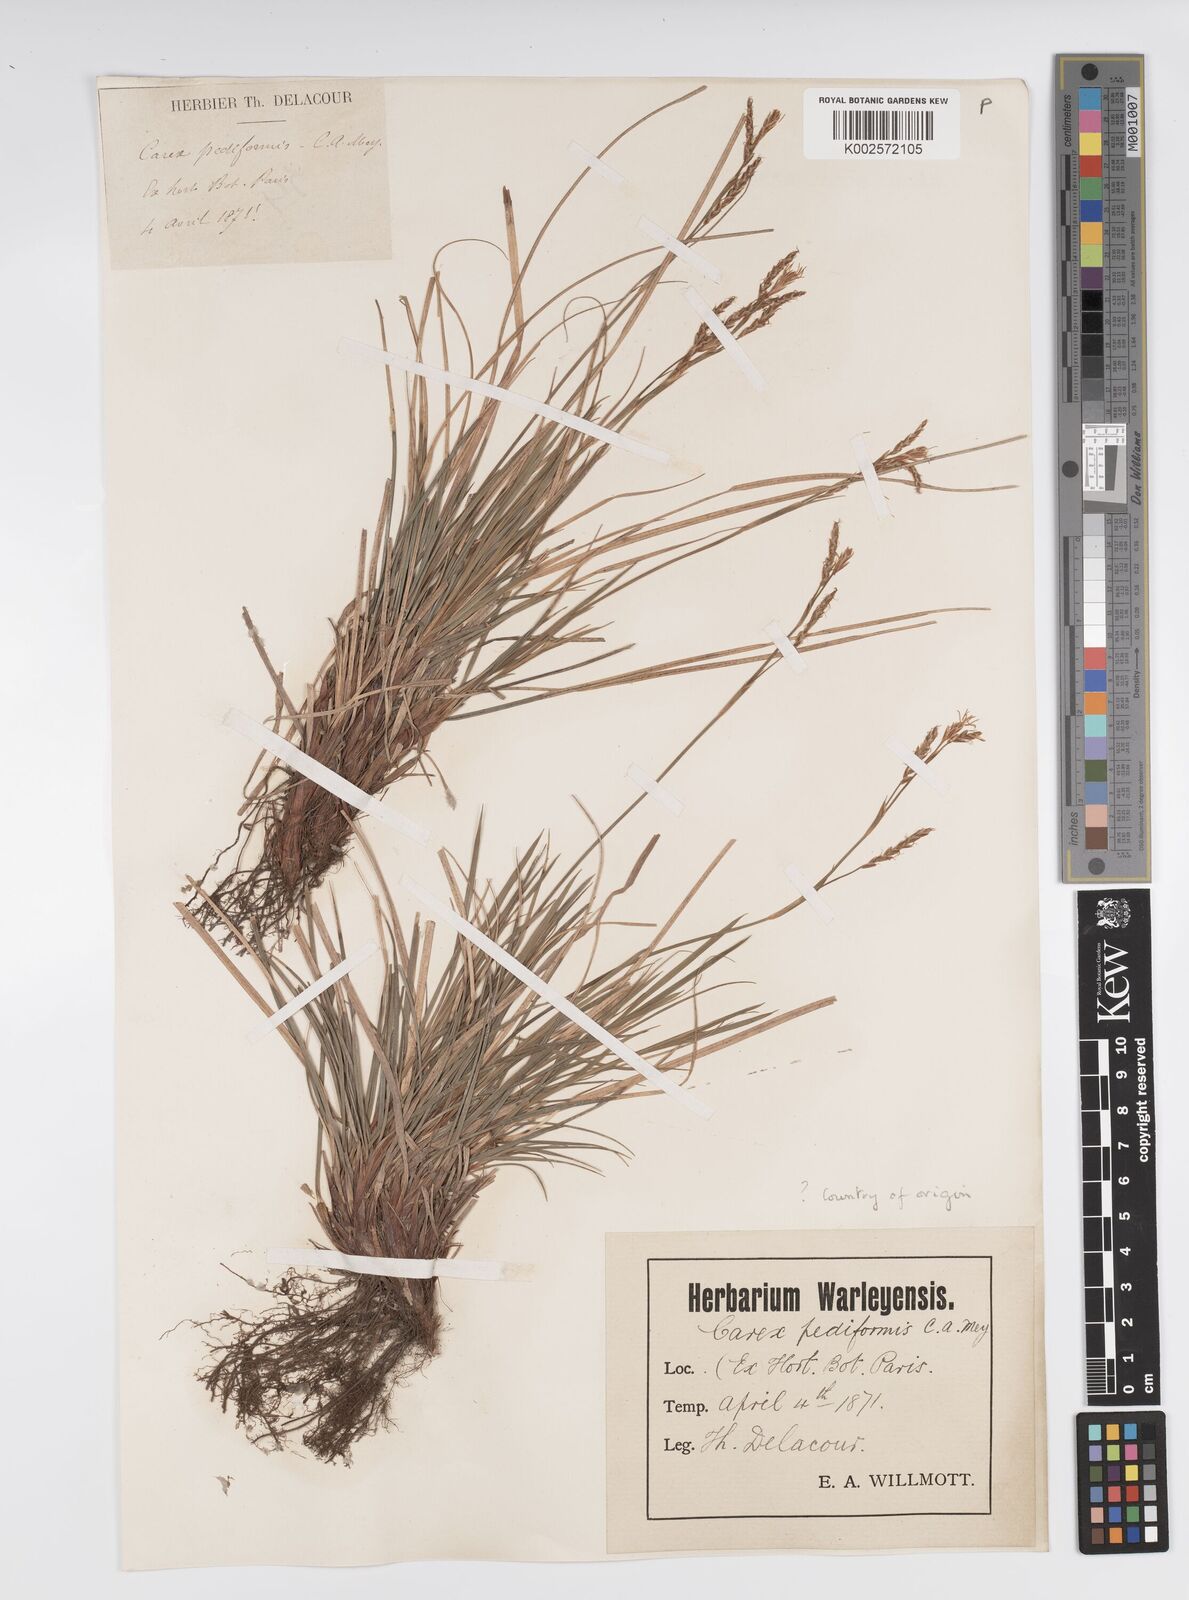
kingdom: Plantae
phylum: Tracheophyta
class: Liliopsida
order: Poales
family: Cyperaceae
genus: Carex
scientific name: Carex pediformis
